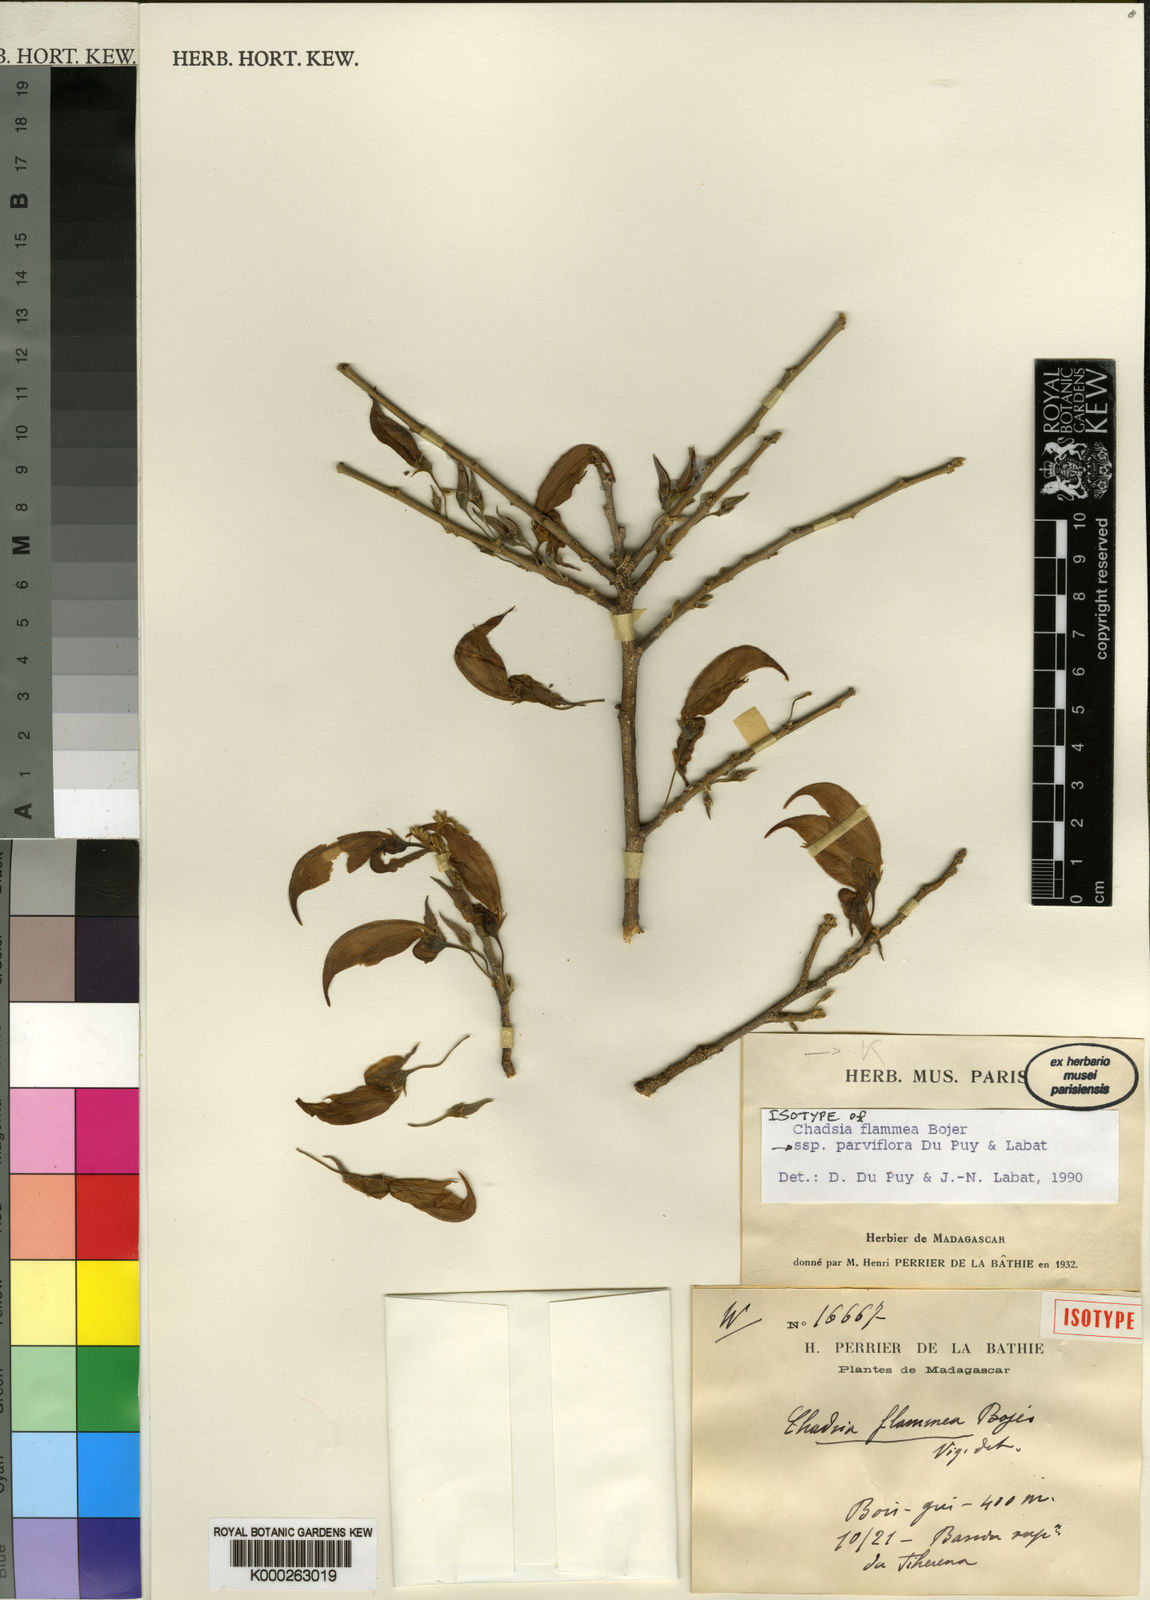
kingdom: Plantae
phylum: Tracheophyta
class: Magnoliopsida
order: Fabales
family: Fabaceae
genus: Chadsia
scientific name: Chadsia flammea
